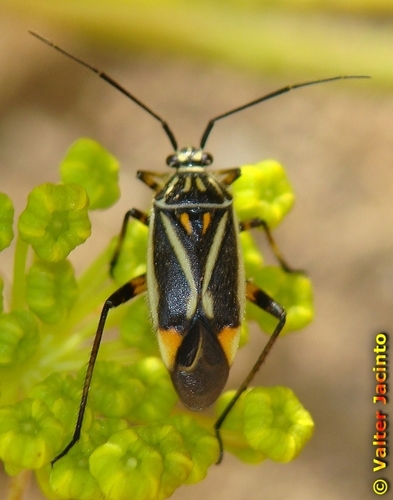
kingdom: Animalia
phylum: Arthropoda
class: Insecta
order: Hemiptera
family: Miridae
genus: Brachycoleus
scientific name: Brachycoleus sexvittatus
